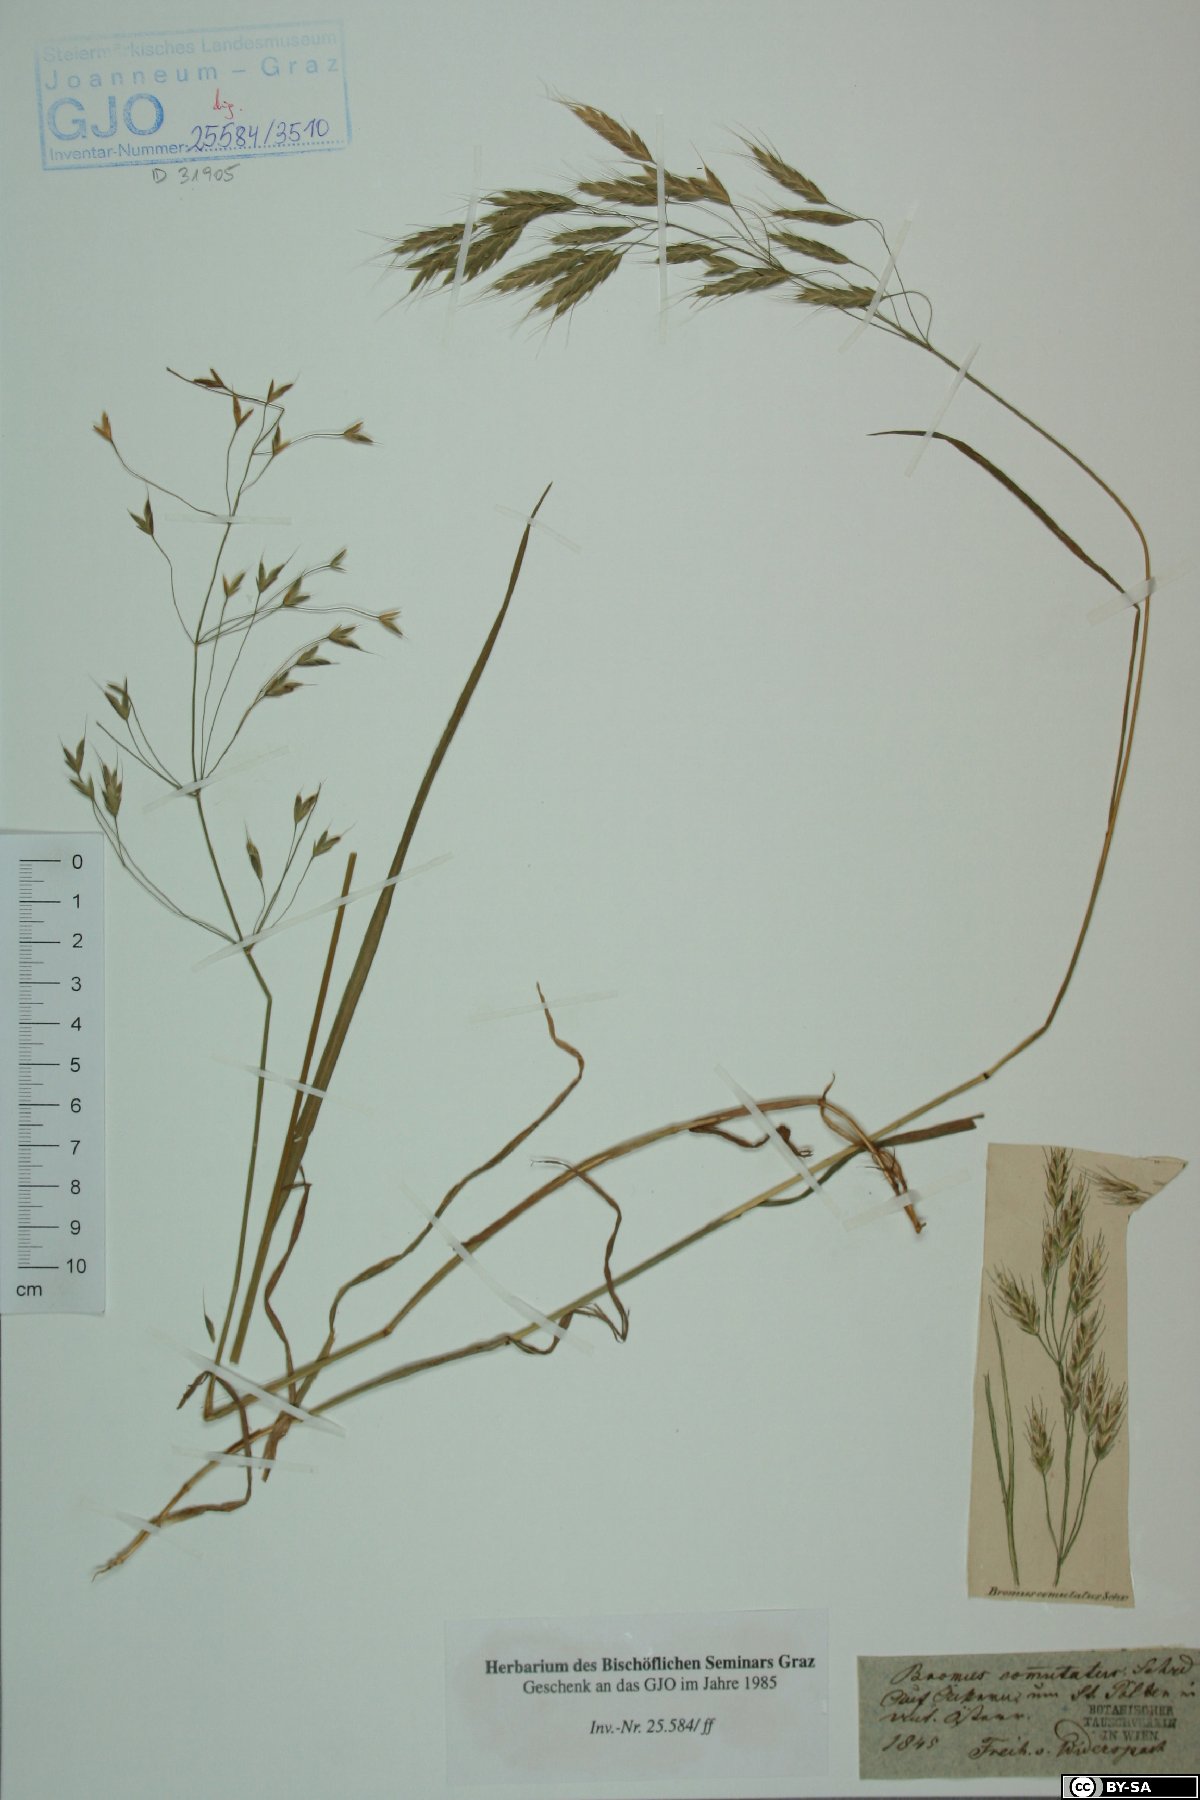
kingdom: Plantae
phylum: Tracheophyta
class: Liliopsida
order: Poales
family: Poaceae
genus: Bromus
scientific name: Bromus commutatus
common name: Meadow brome
